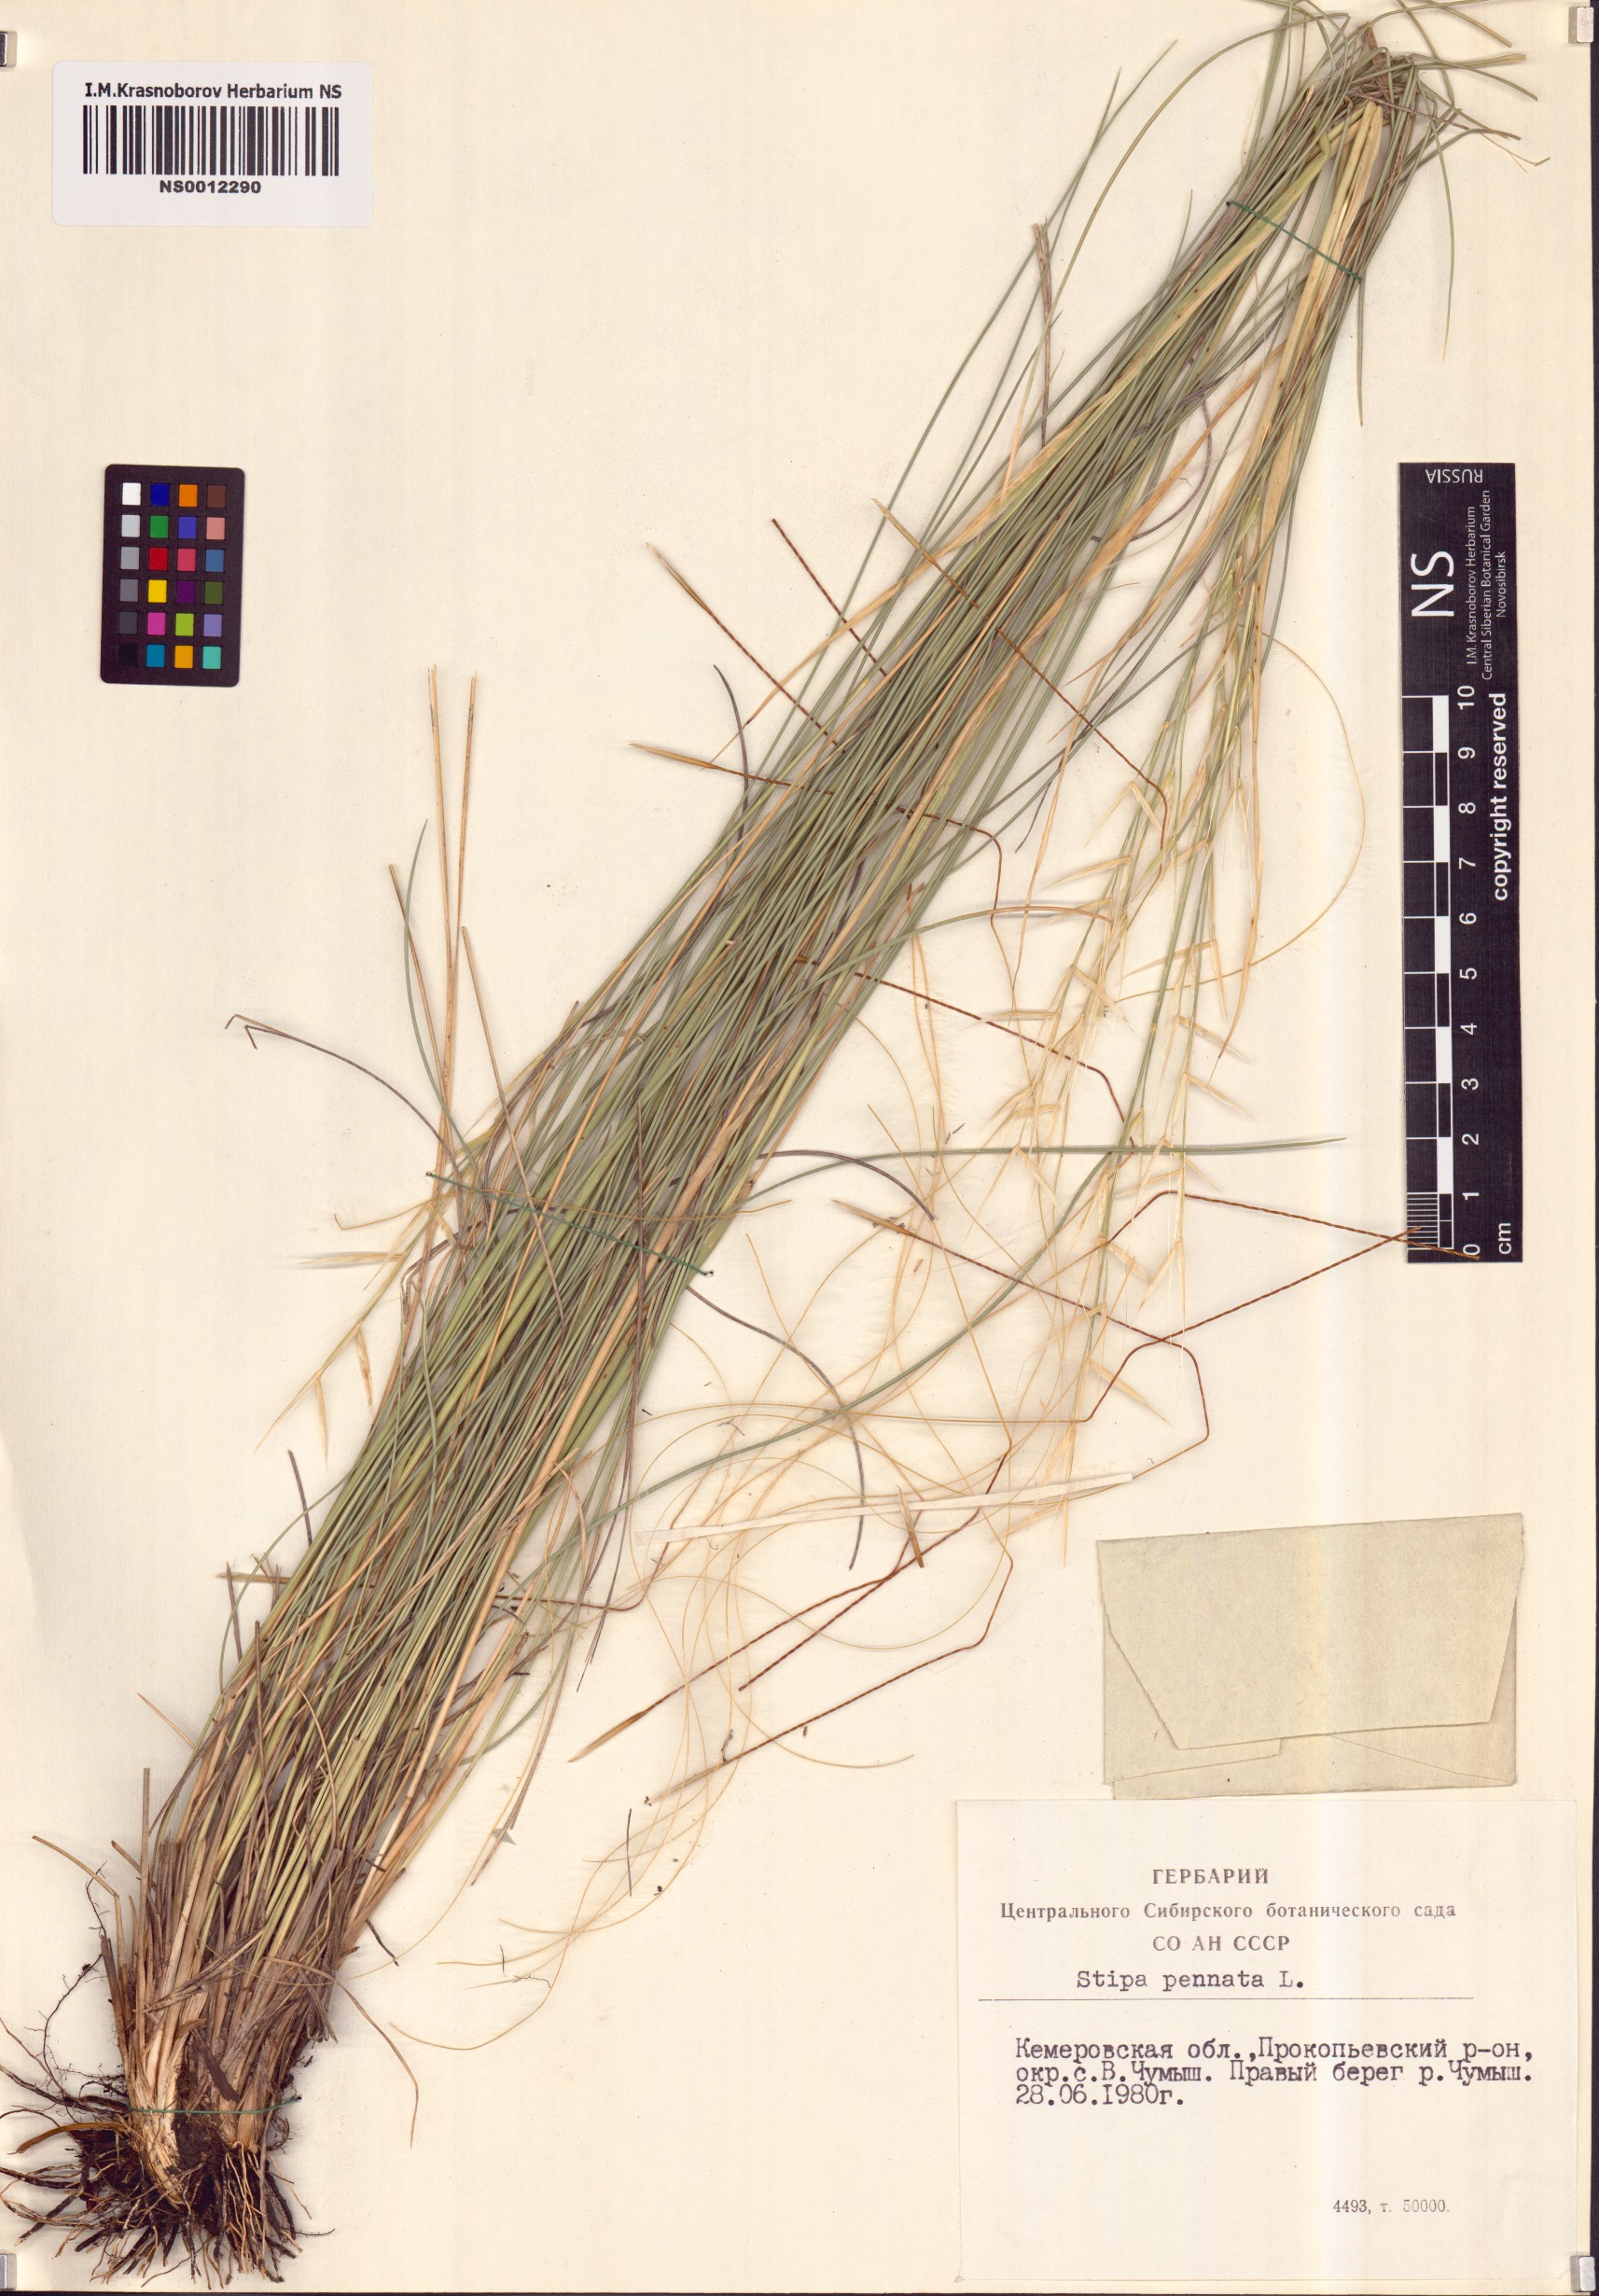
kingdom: Plantae
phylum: Tracheophyta
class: Liliopsida
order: Poales
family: Poaceae
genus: Stipa
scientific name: Stipa pennata
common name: European feather grass
